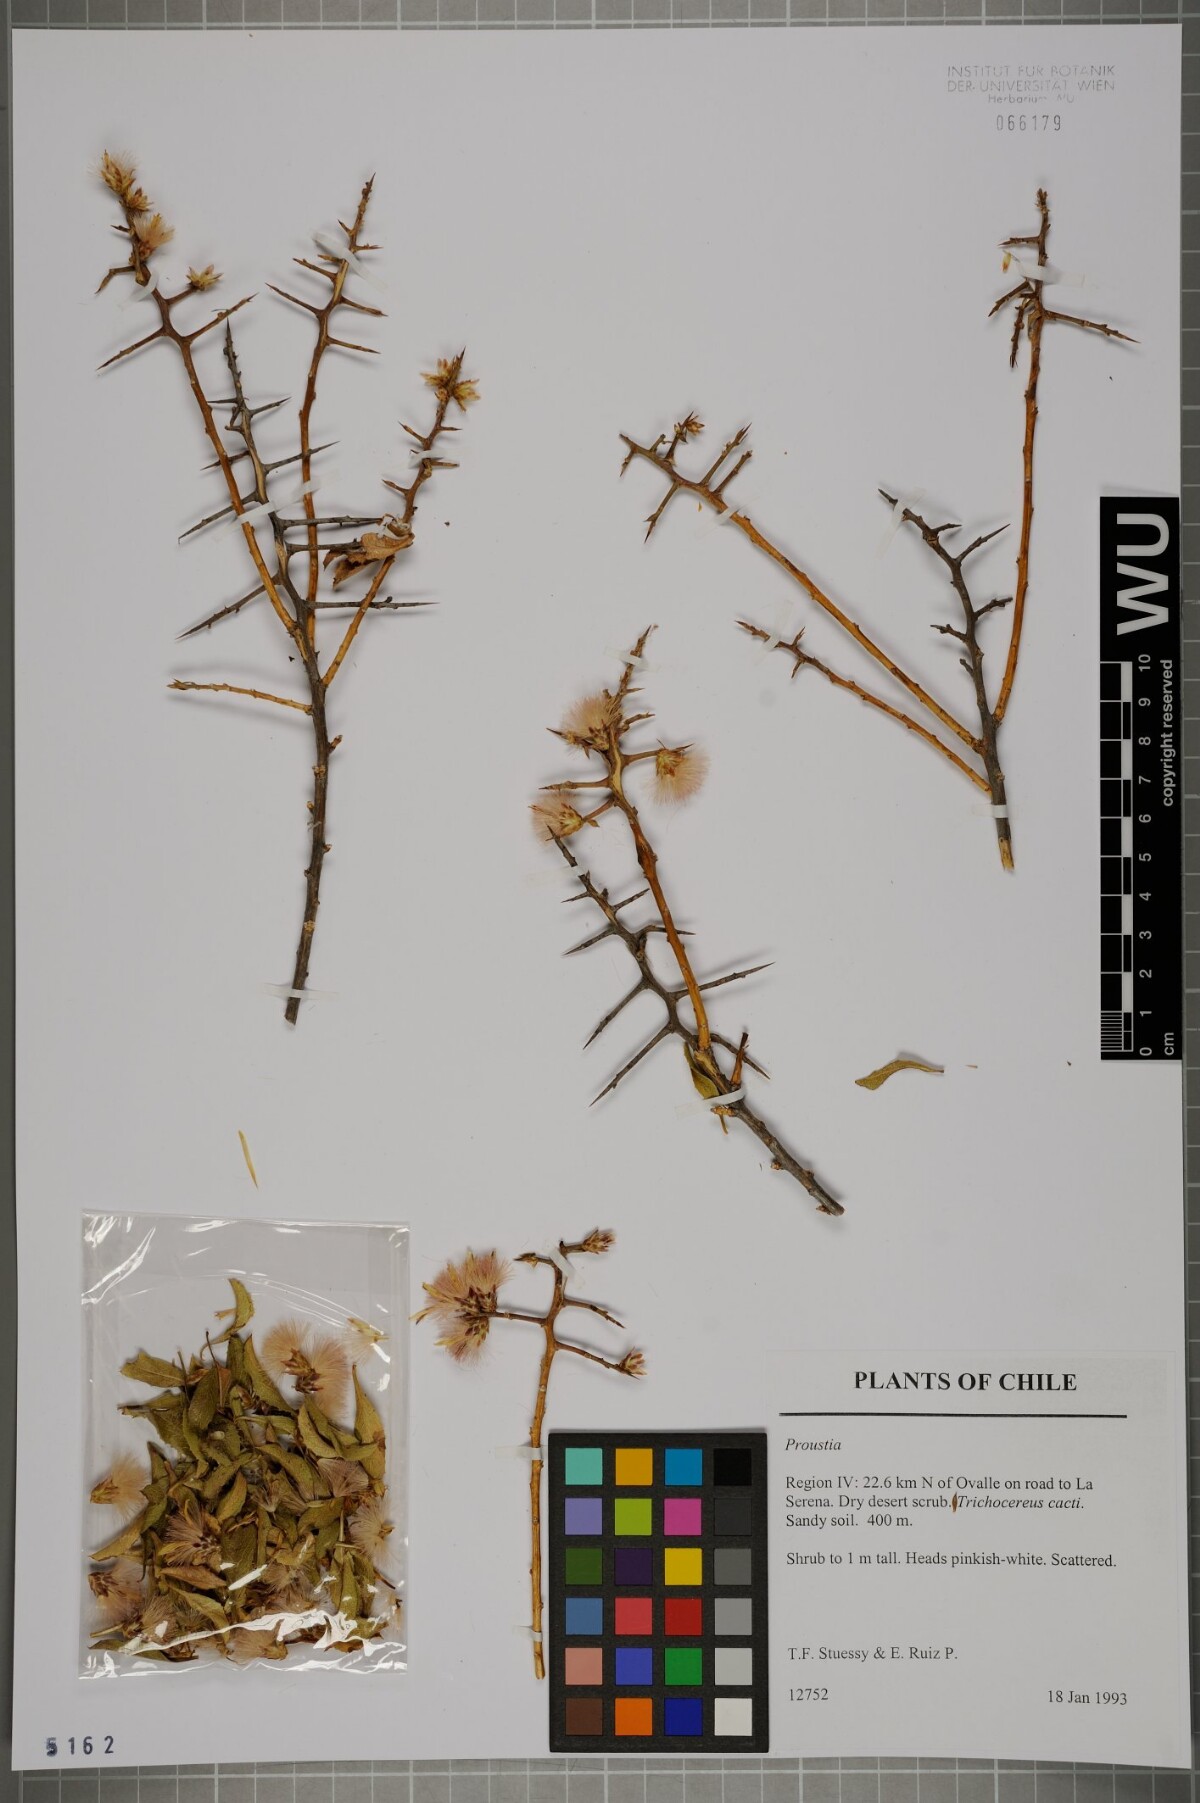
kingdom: Plantae
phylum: Tracheophyta
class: Magnoliopsida
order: Asterales
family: Asteraceae
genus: Proustia
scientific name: Proustia
